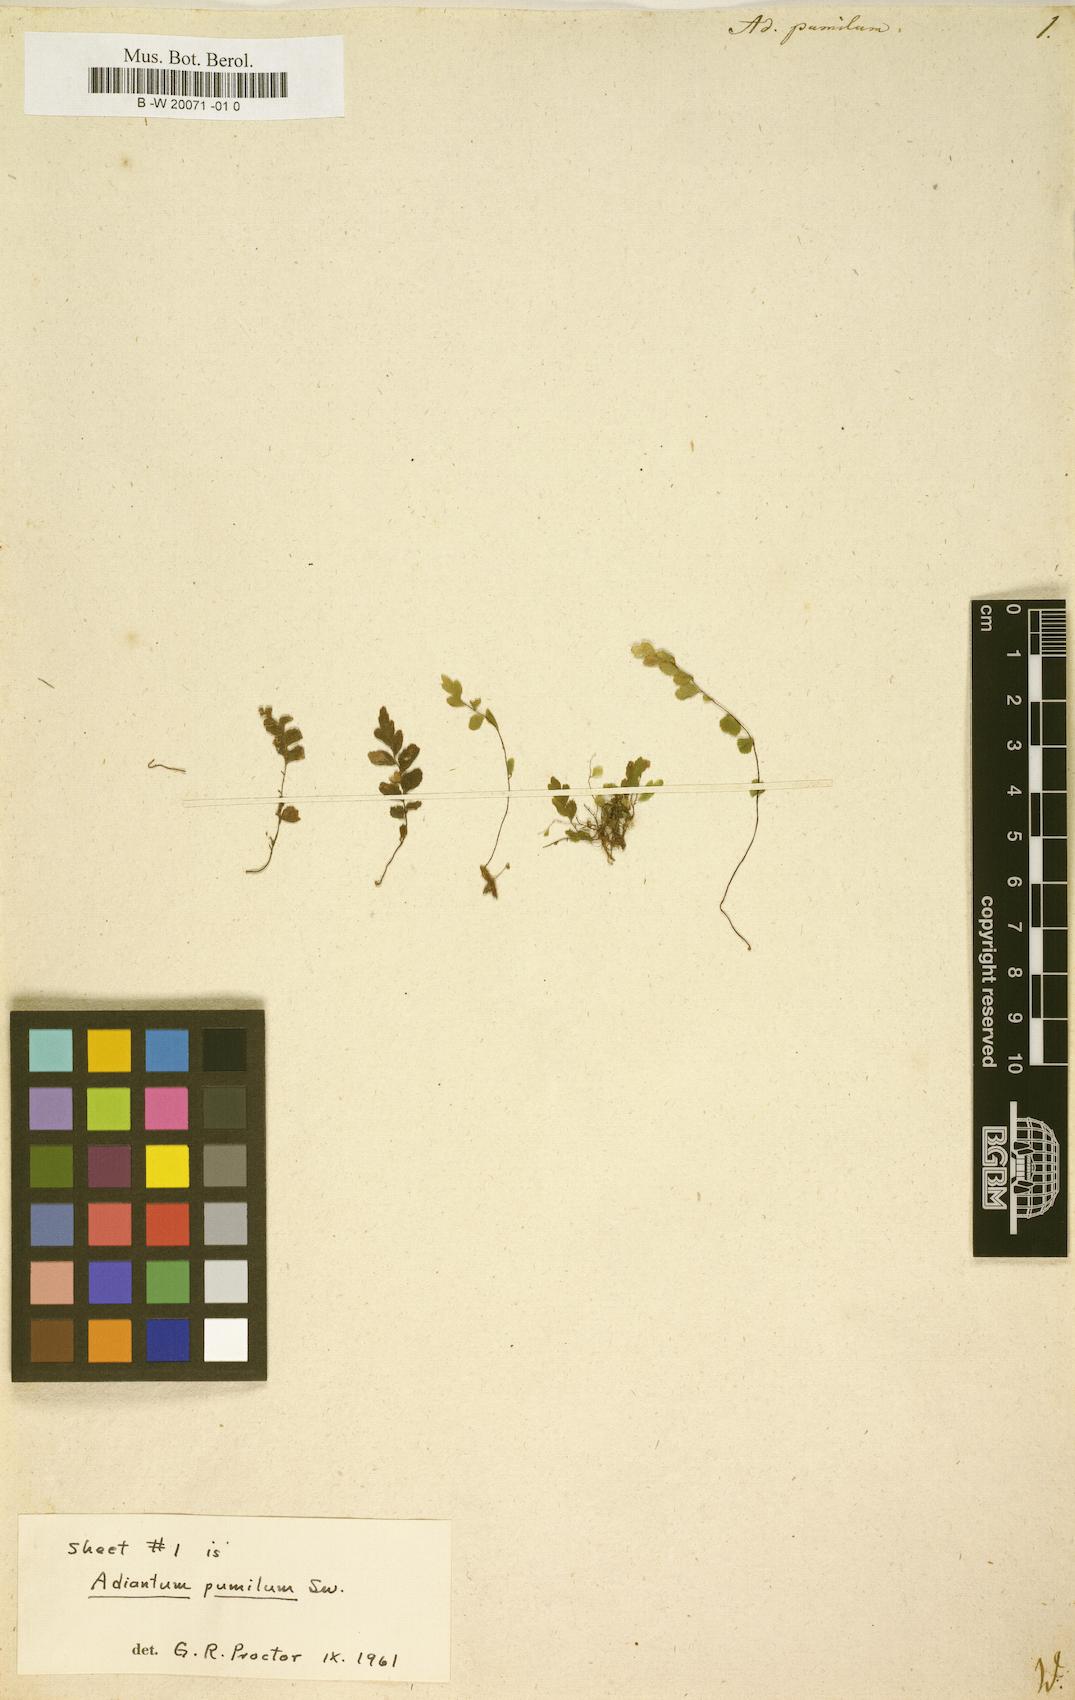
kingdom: Plantae
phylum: Tracheophyta
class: Polypodiopsida
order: Polypodiales
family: Pteridaceae
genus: Adiantum
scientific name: Adiantum pumilum
